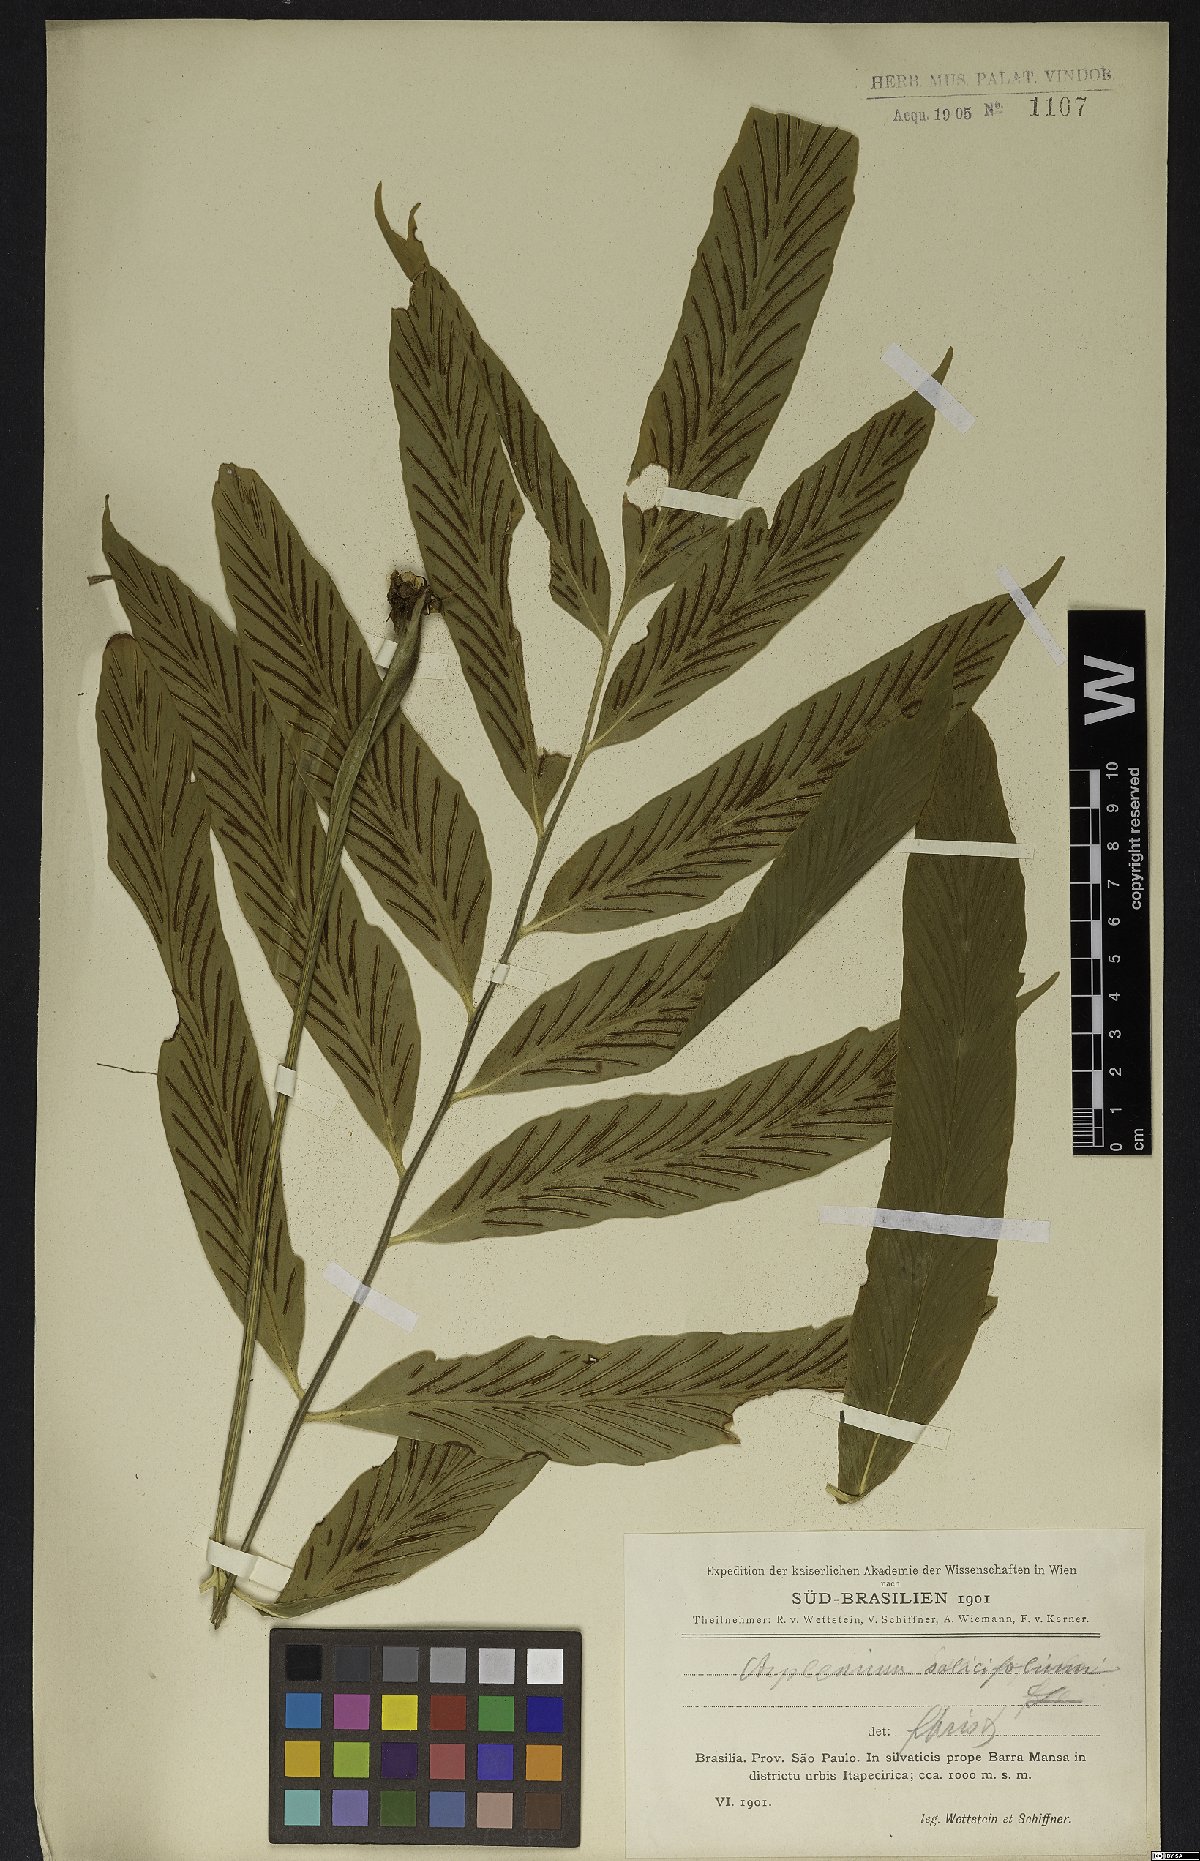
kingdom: Plantae
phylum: Tracheophyta
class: Polypodiopsida
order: Polypodiales
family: Aspleniaceae
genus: Asplenium
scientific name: Asplenium salicifolium
